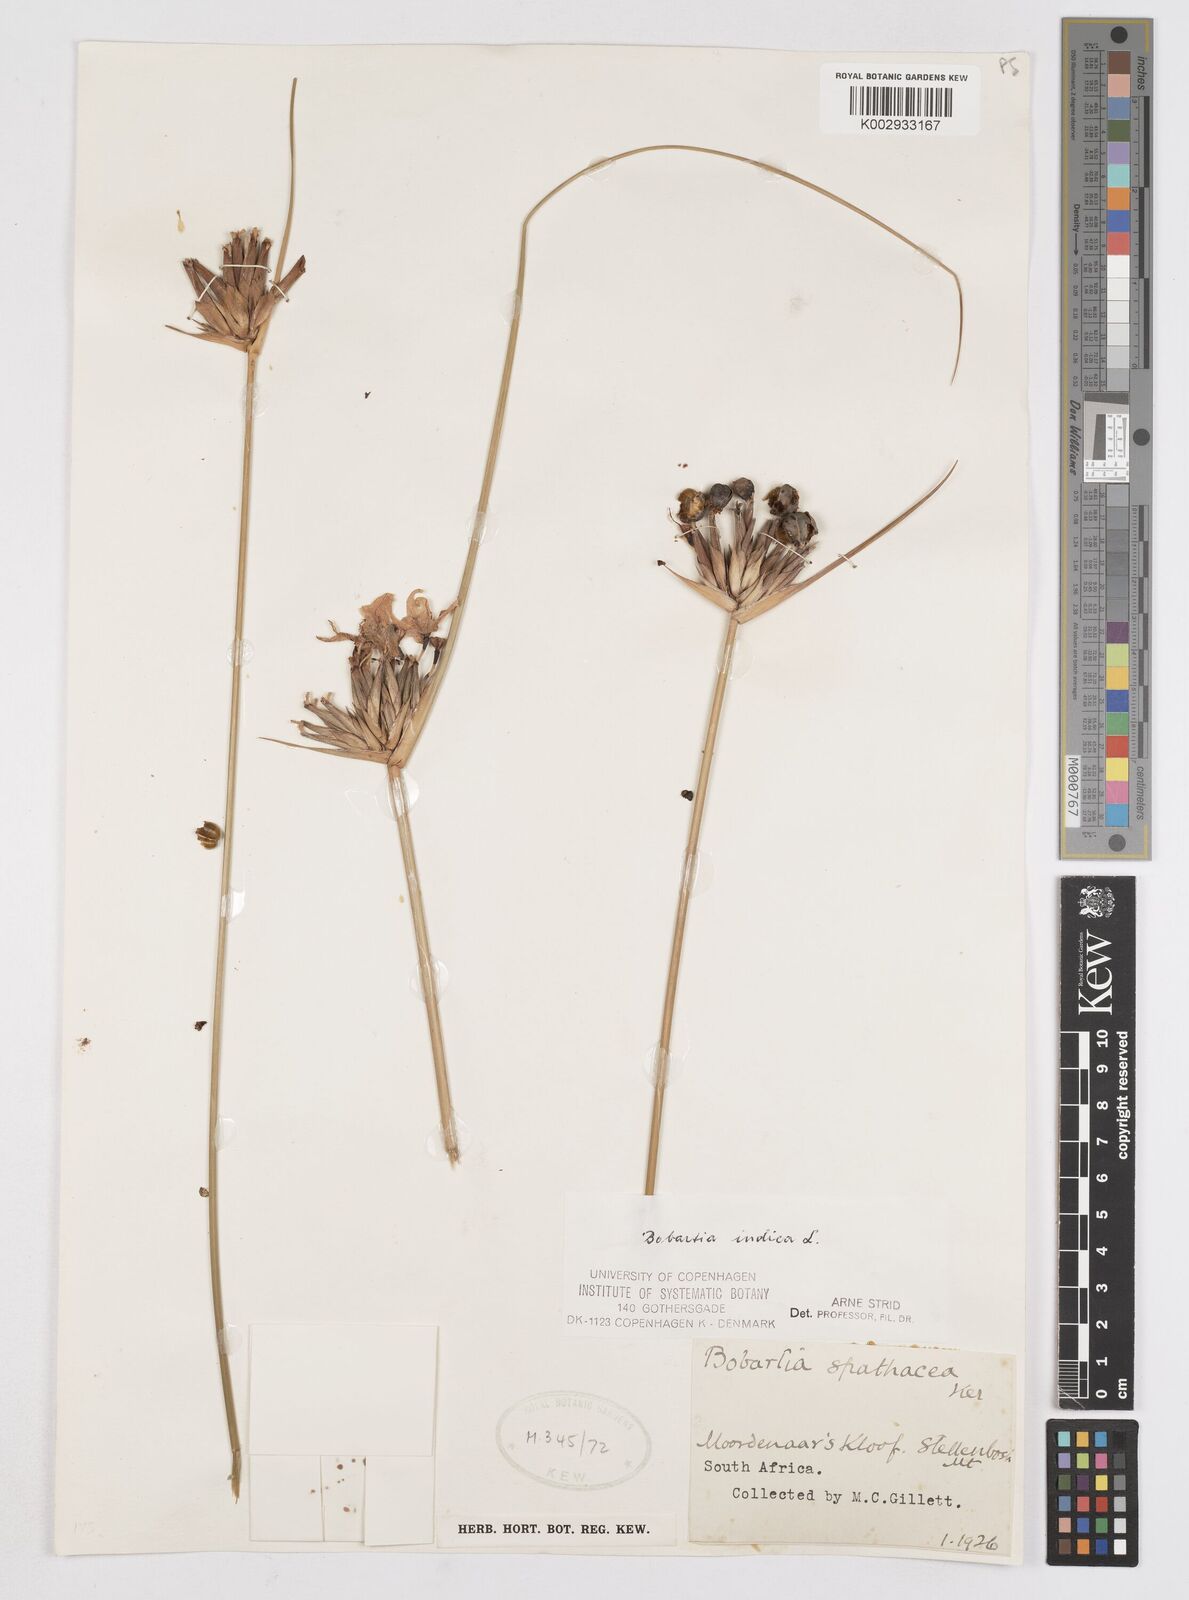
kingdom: Plantae
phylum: Tracheophyta
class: Liliopsida
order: Asparagales
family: Iridaceae
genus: Bobartia
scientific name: Bobartia indica
